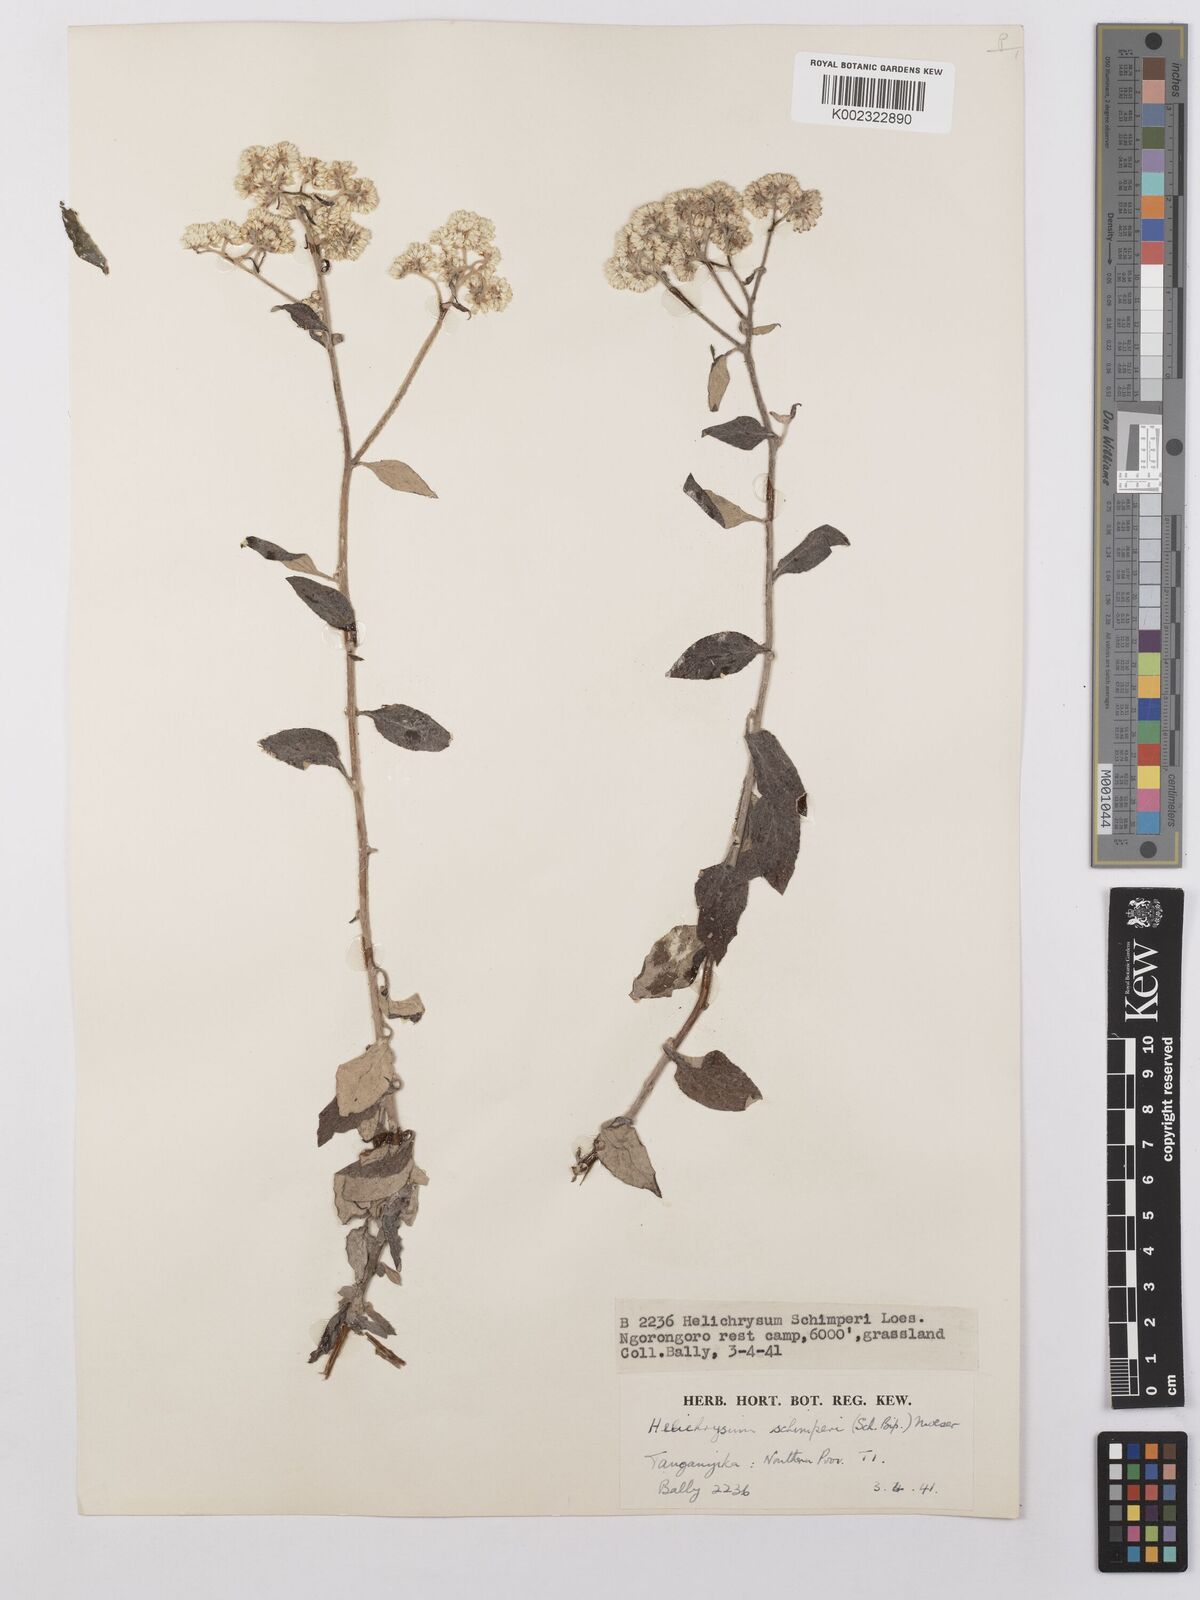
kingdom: Plantae
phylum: Tracheophyta
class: Magnoliopsida
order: Asterales
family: Asteraceae
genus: Helichrysum
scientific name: Helichrysum schimperi
